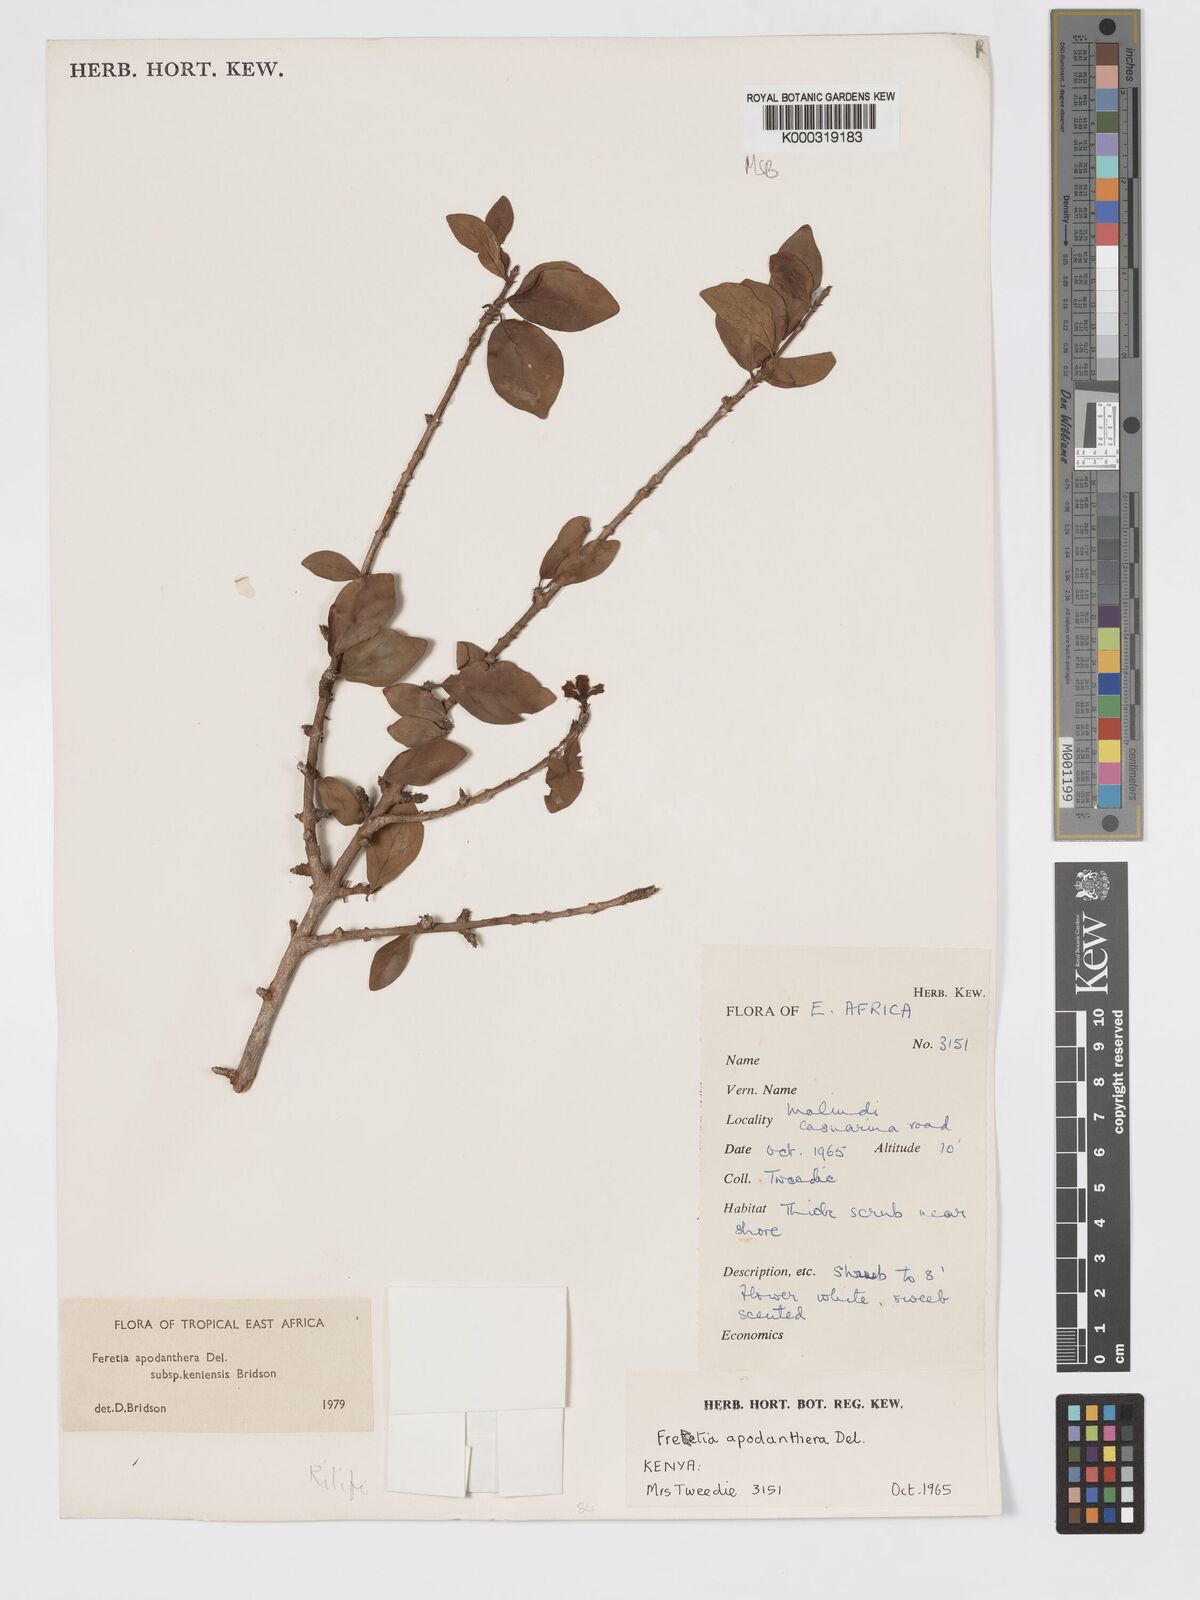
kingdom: Plantae
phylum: Tracheophyta
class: Magnoliopsida
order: Gentianales
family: Rubiaceae
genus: Feretia
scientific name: Feretia apodanthera
